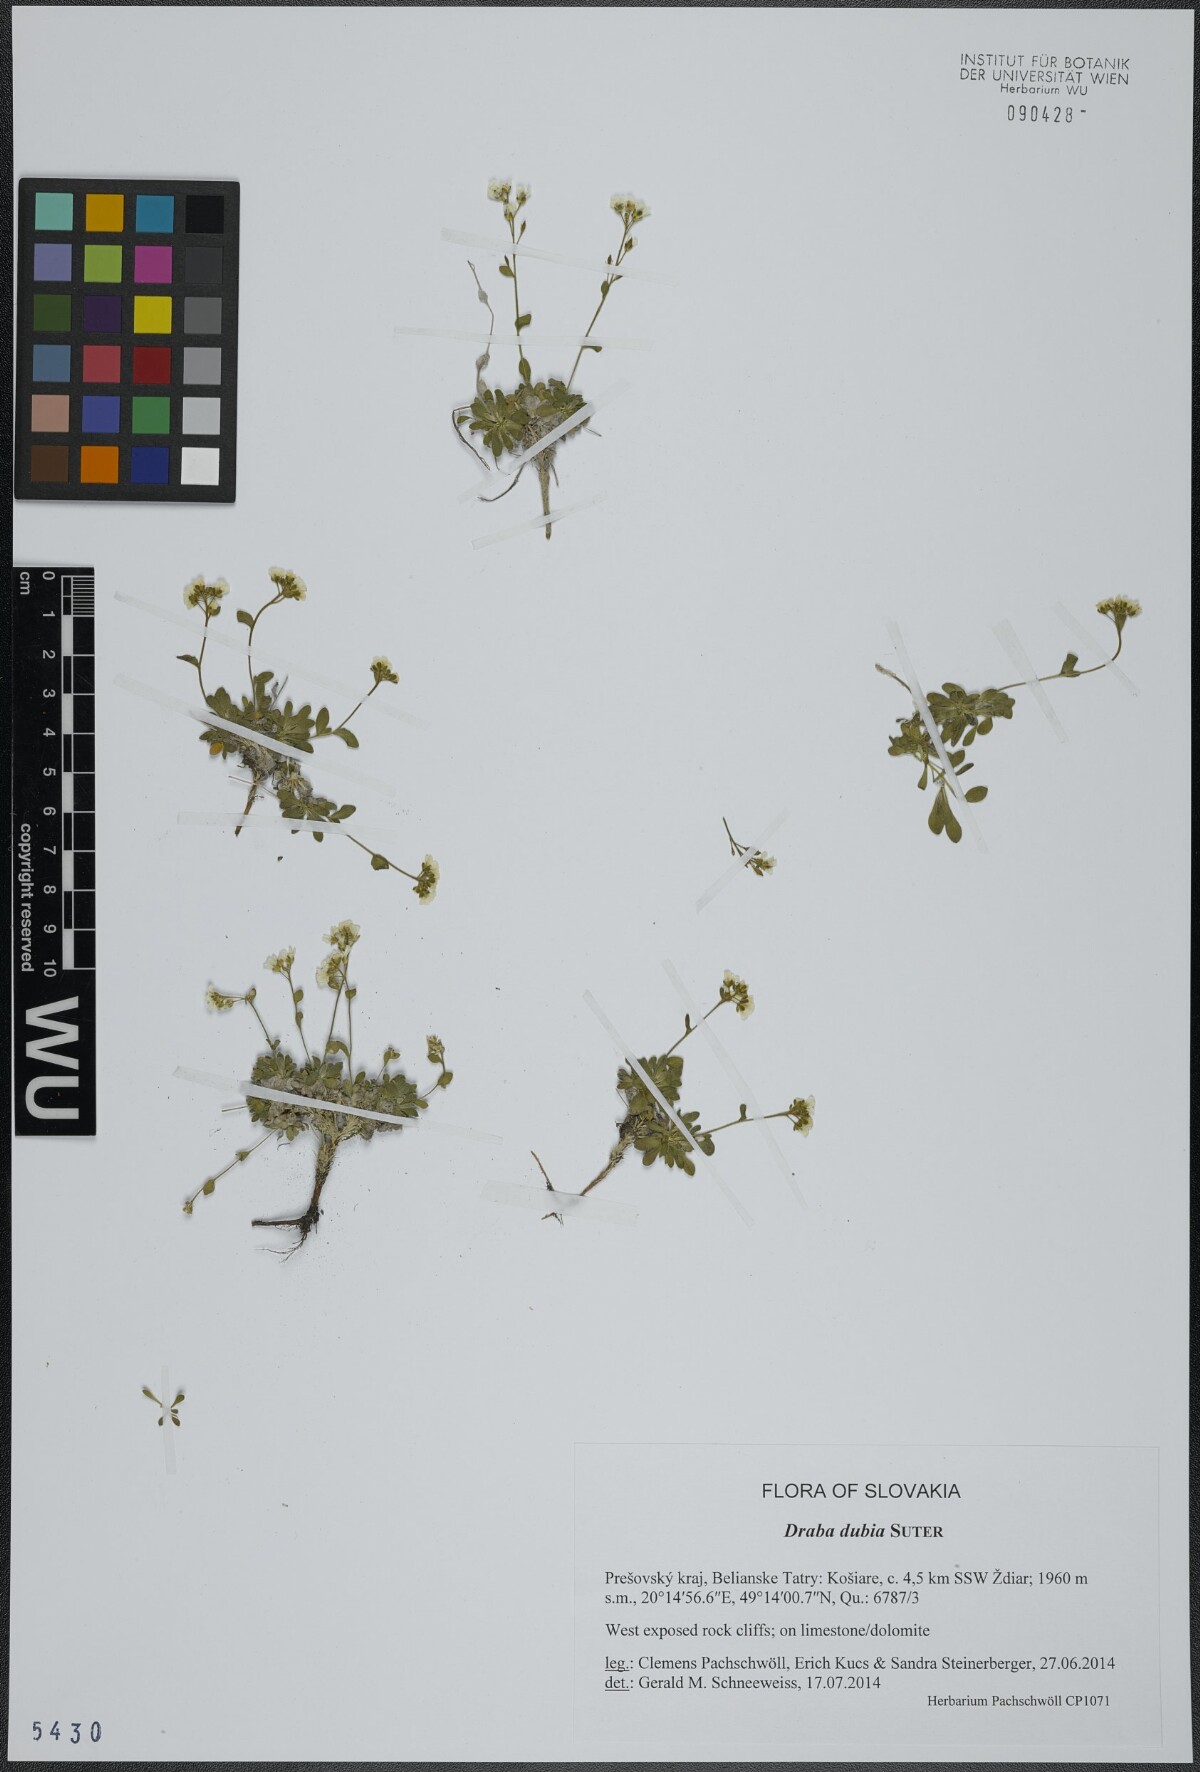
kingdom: Plantae
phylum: Tracheophyta
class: Magnoliopsida
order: Brassicales
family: Brassicaceae
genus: Draba
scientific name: Draba dubia
